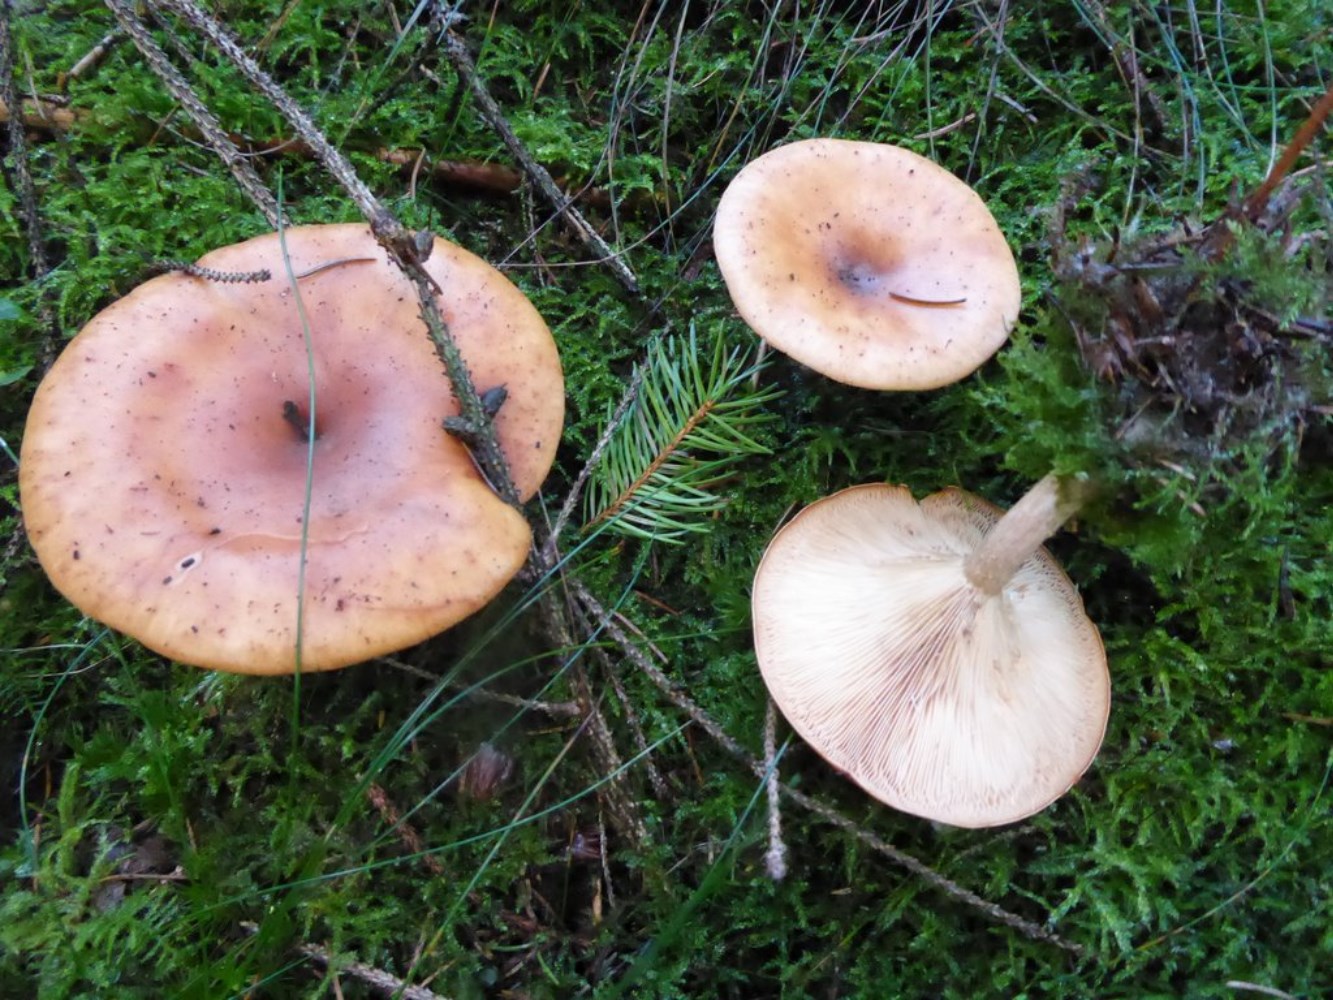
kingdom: Fungi
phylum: Basidiomycota
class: Agaricomycetes
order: Agaricales
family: Tricholomataceae
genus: Paralepista
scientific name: Paralepista flaccida
